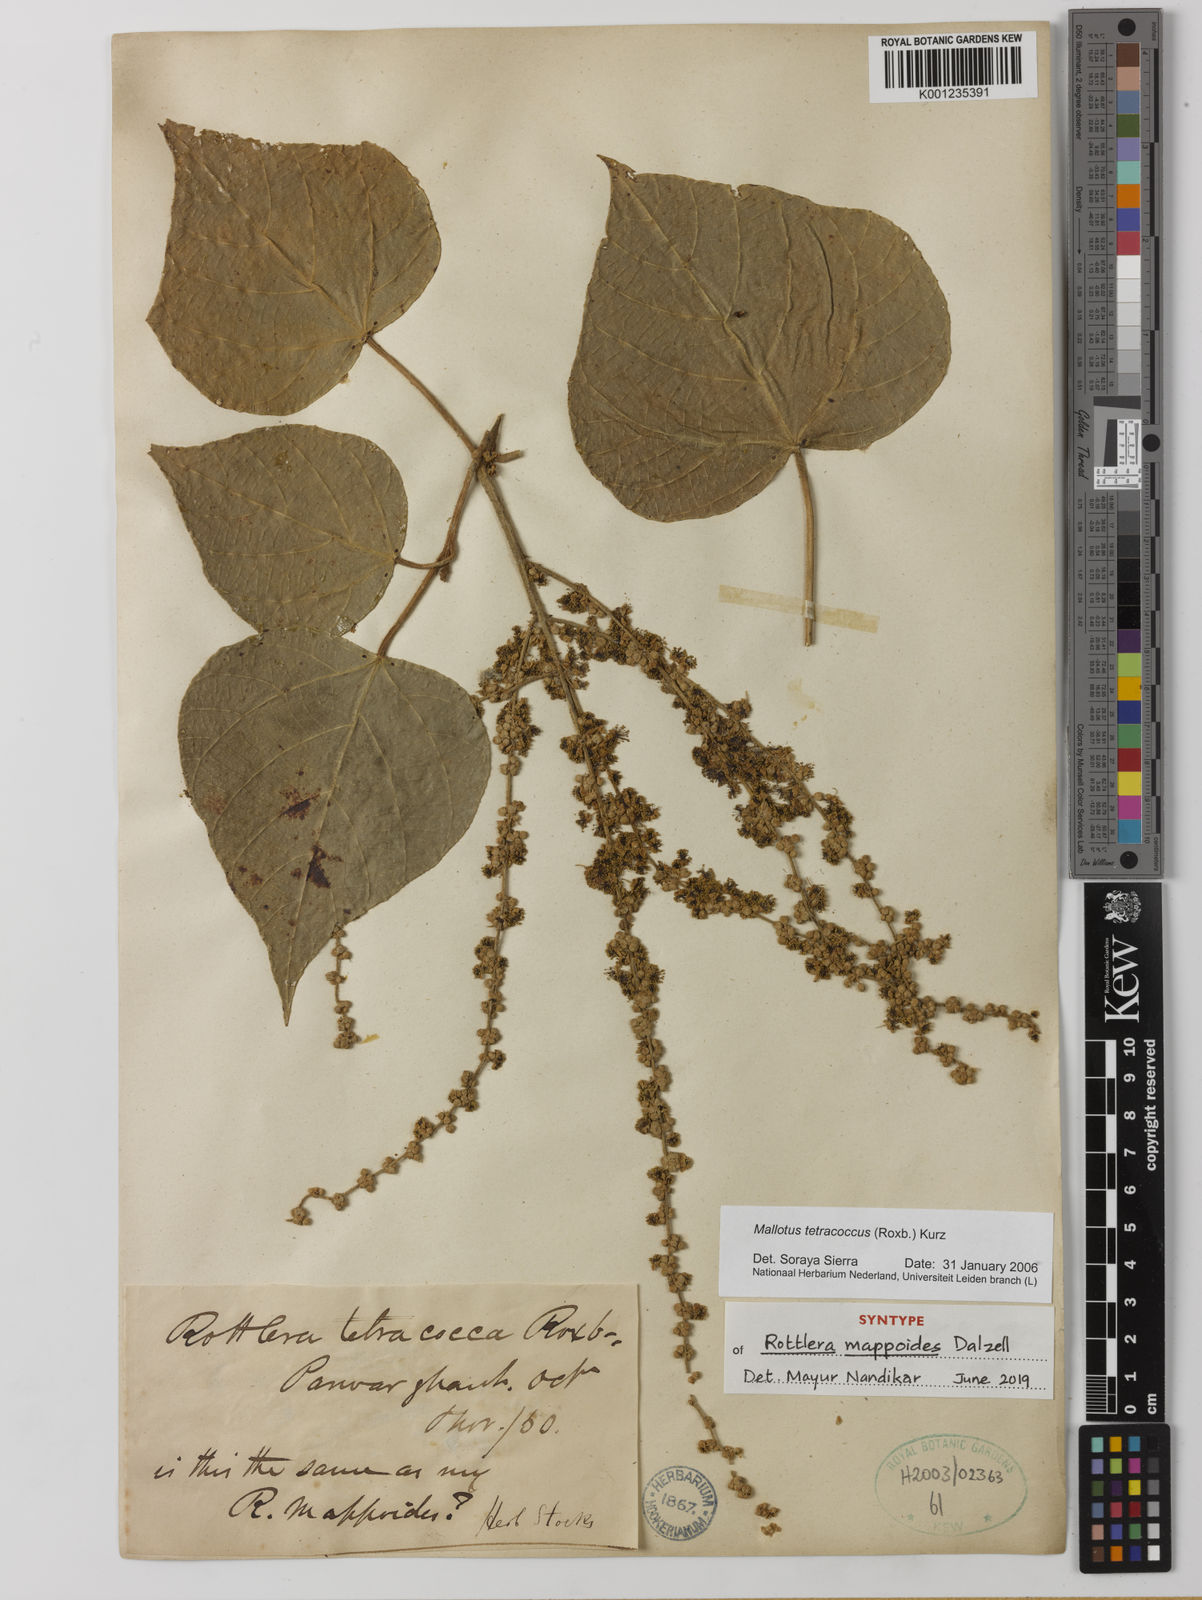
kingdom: Plantae
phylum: Tracheophyta
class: Magnoliopsida
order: Malpighiales
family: Euphorbiaceae
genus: Mallotus
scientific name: Mallotus tetracoccus
